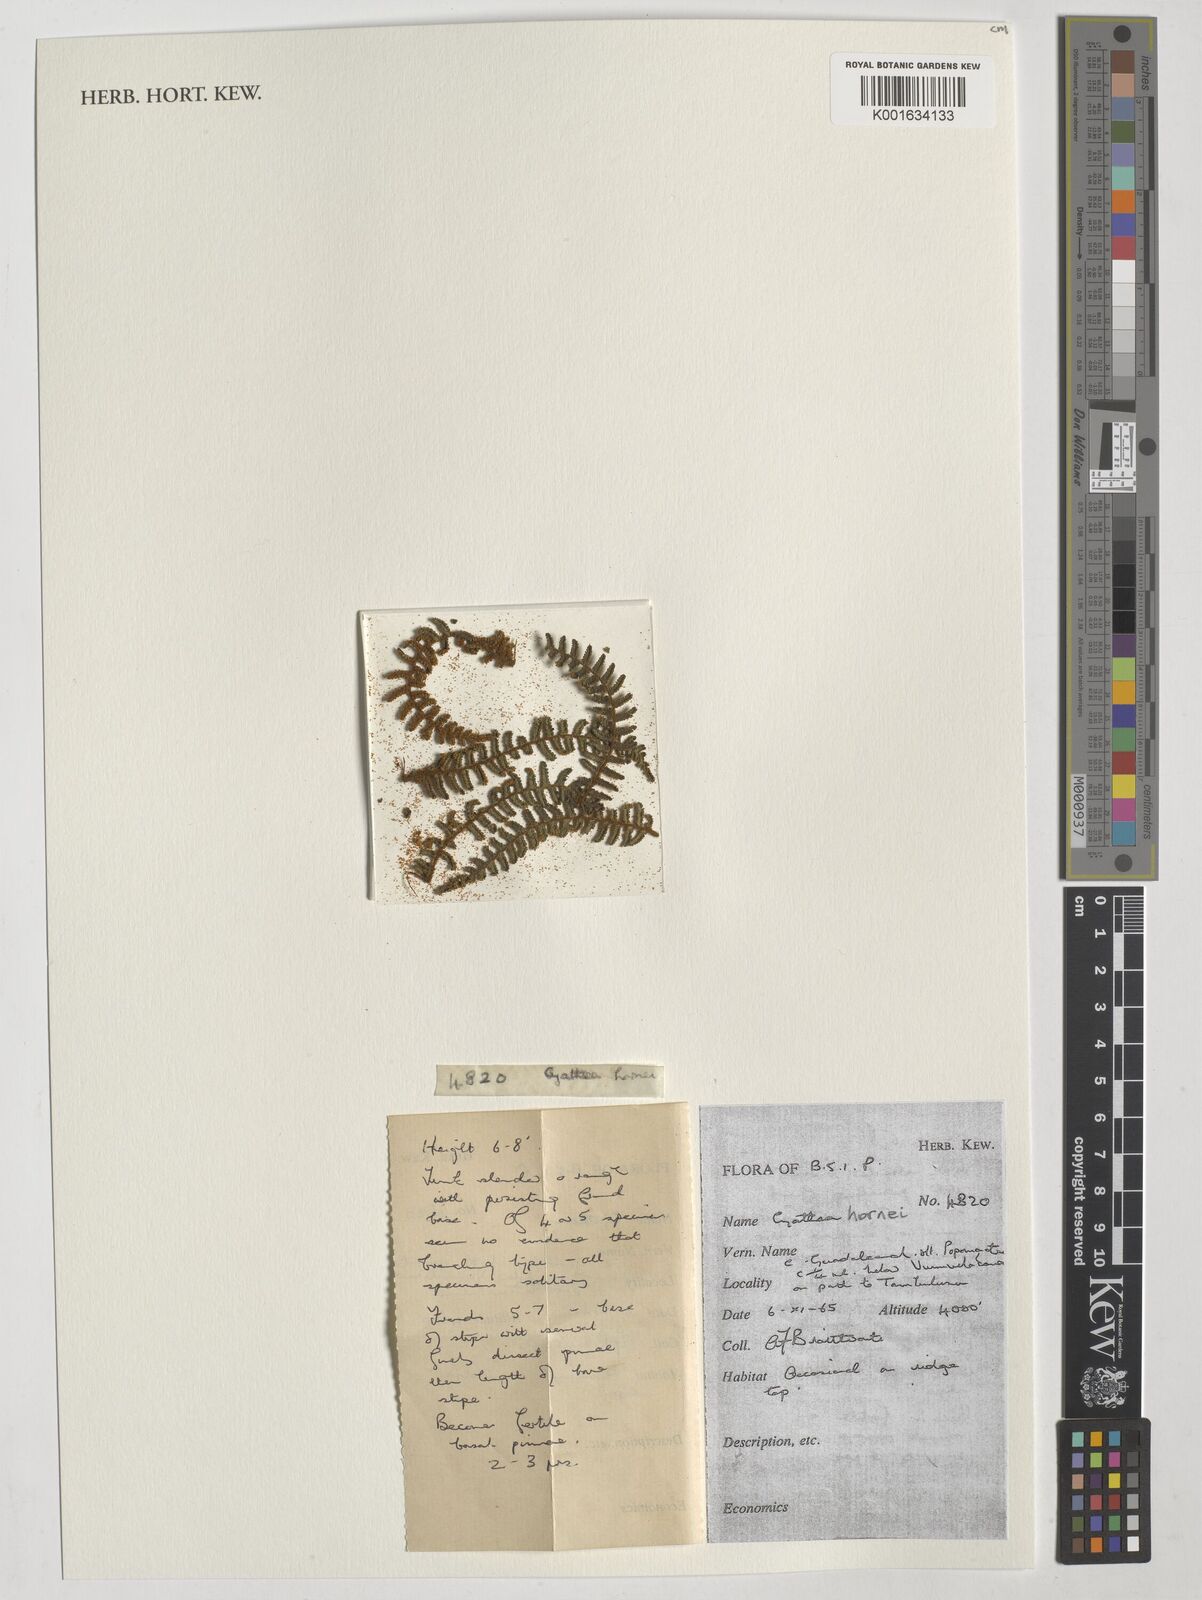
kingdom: Plantae
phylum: Tracheophyta
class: Polypodiopsida
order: Cyatheales
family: Cyatheaceae
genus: Gymnosphaera
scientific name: Gymnosphaera hornei
